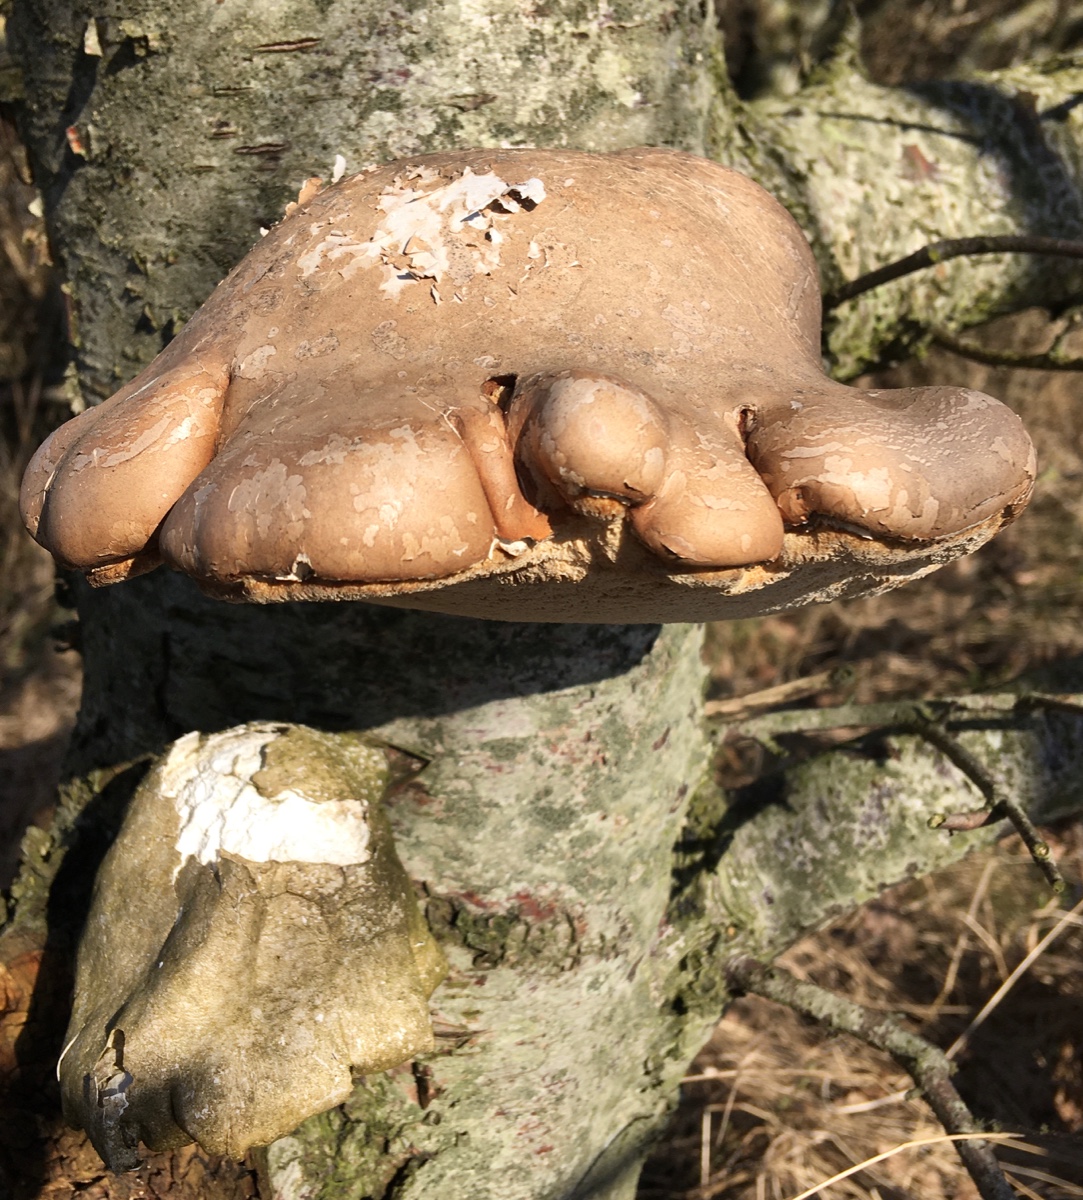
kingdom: Fungi
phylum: Basidiomycota
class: Agaricomycetes
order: Polyporales
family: Fomitopsidaceae
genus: Fomitopsis
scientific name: Fomitopsis betulina
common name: birkeporesvamp
